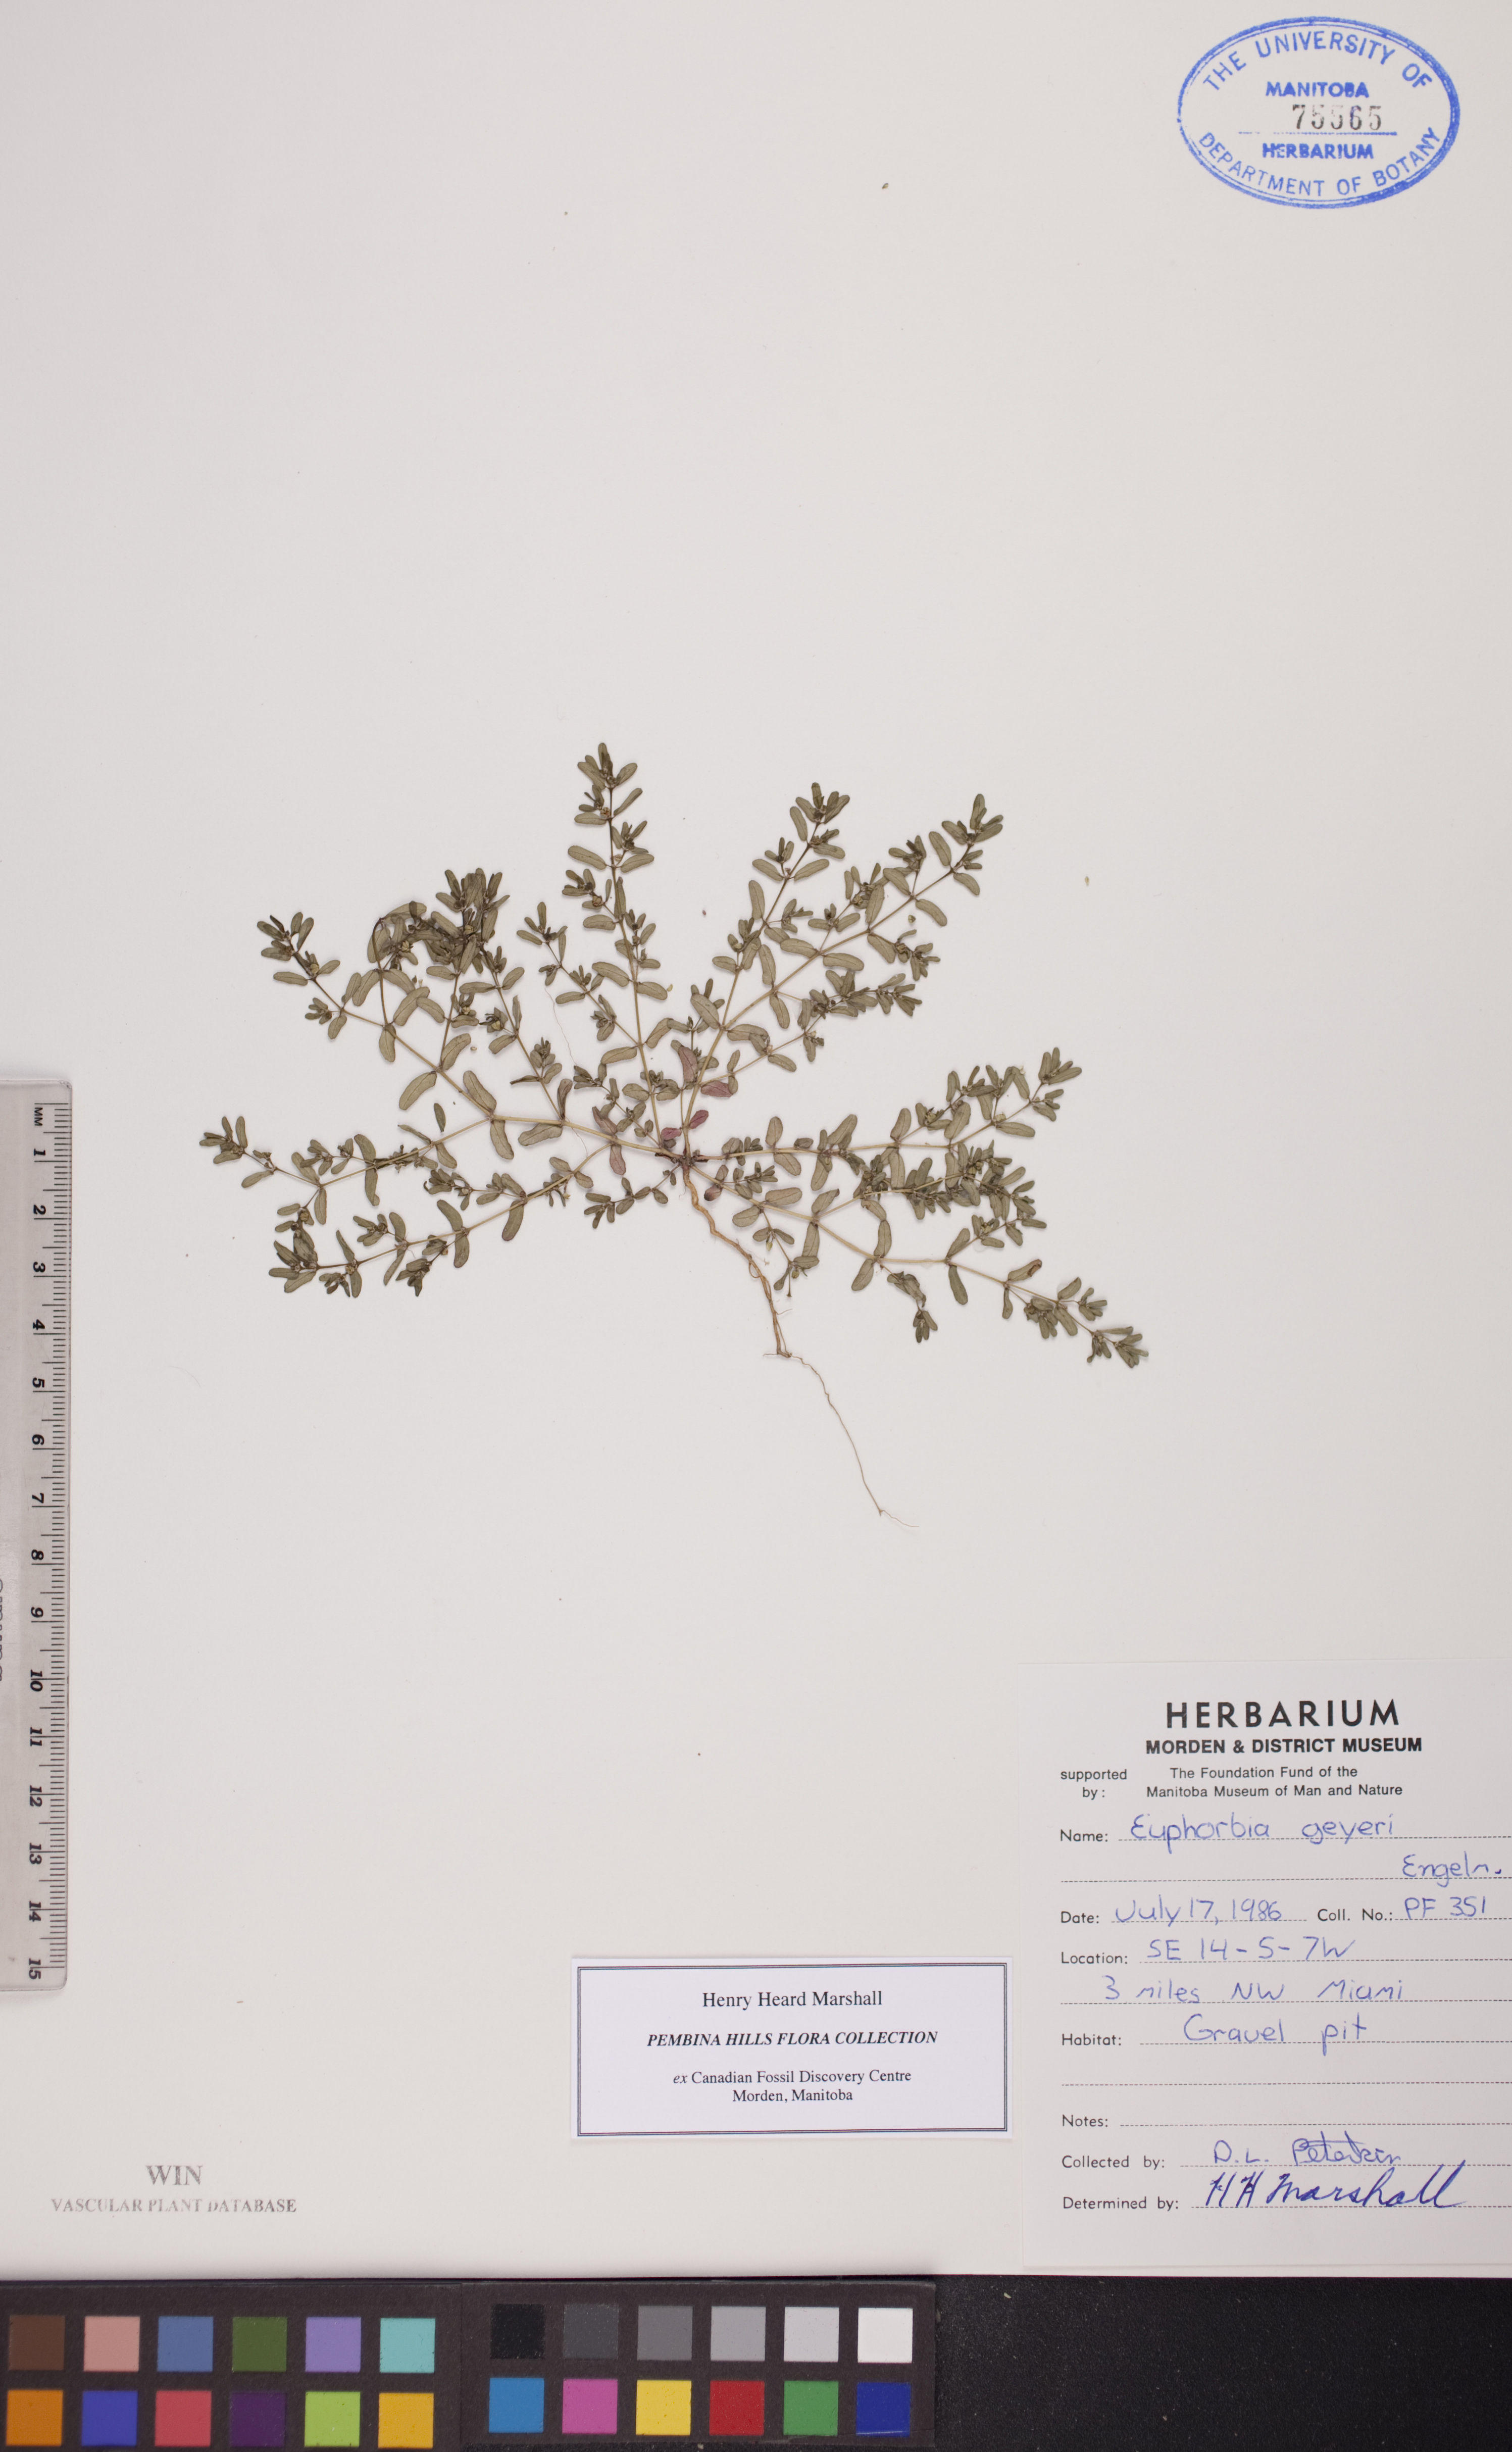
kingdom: Plantae
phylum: Tracheophyta
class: Magnoliopsida
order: Malpighiales
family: Euphorbiaceae
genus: Euphorbia
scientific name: Euphorbia geyeri
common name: Geyer's spurge
